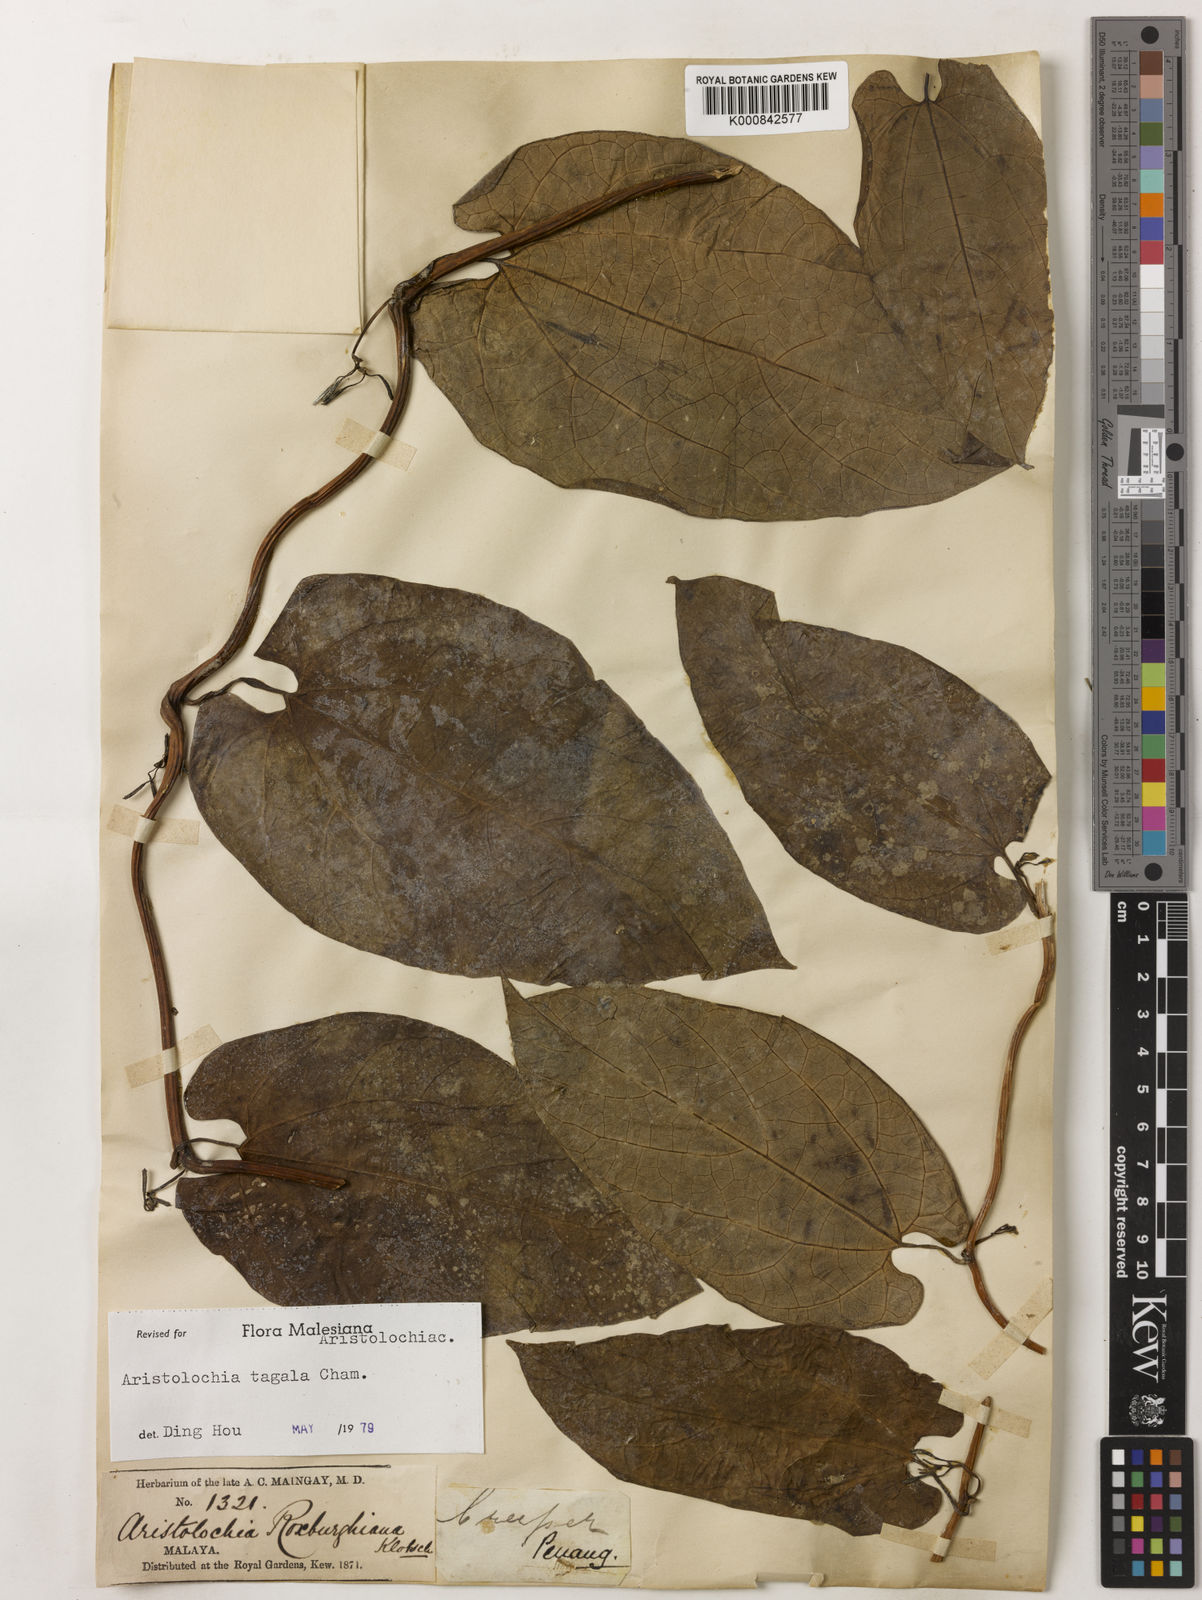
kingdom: Plantae
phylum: Tracheophyta
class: Magnoliopsida
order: Piperales
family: Aristolochiaceae
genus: Aristolochia
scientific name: Aristolochia acuminata
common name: Indian birthwort
